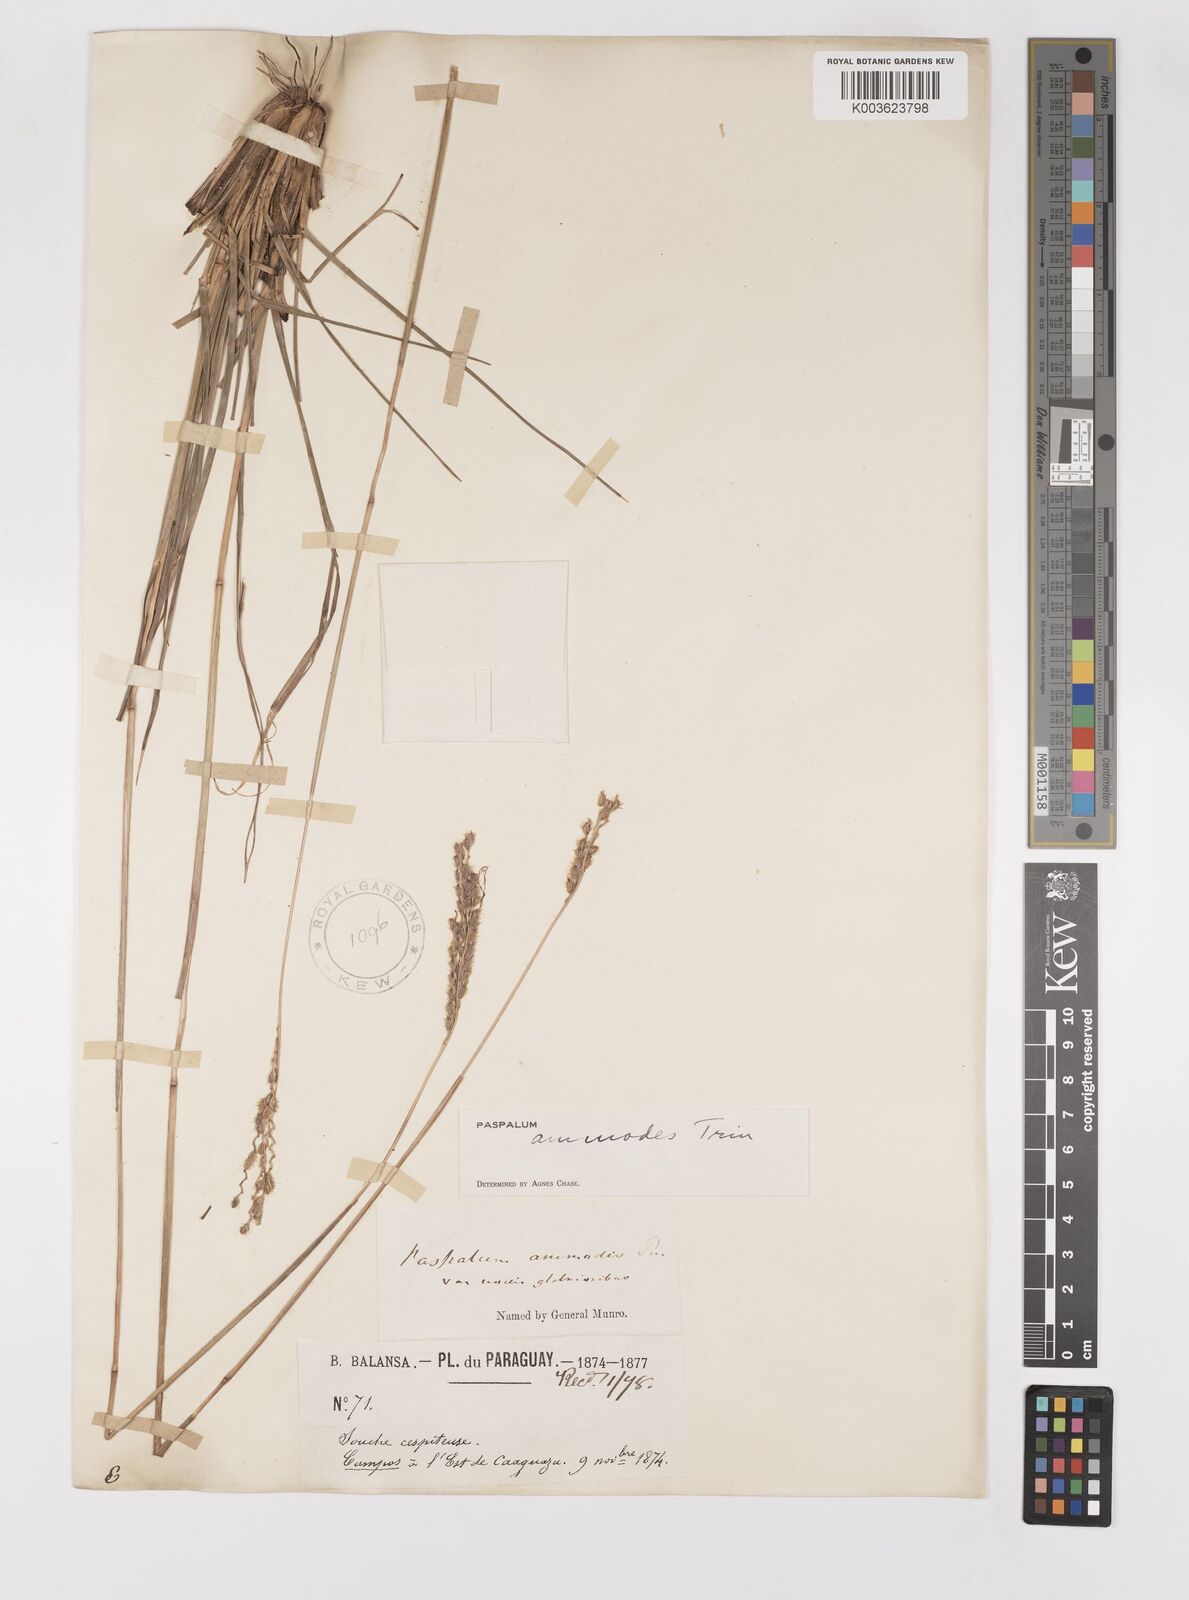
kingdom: Plantae
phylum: Tracheophyta
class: Liliopsida
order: Poales
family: Poaceae
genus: Paspalum
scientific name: Paspalum ammodes
